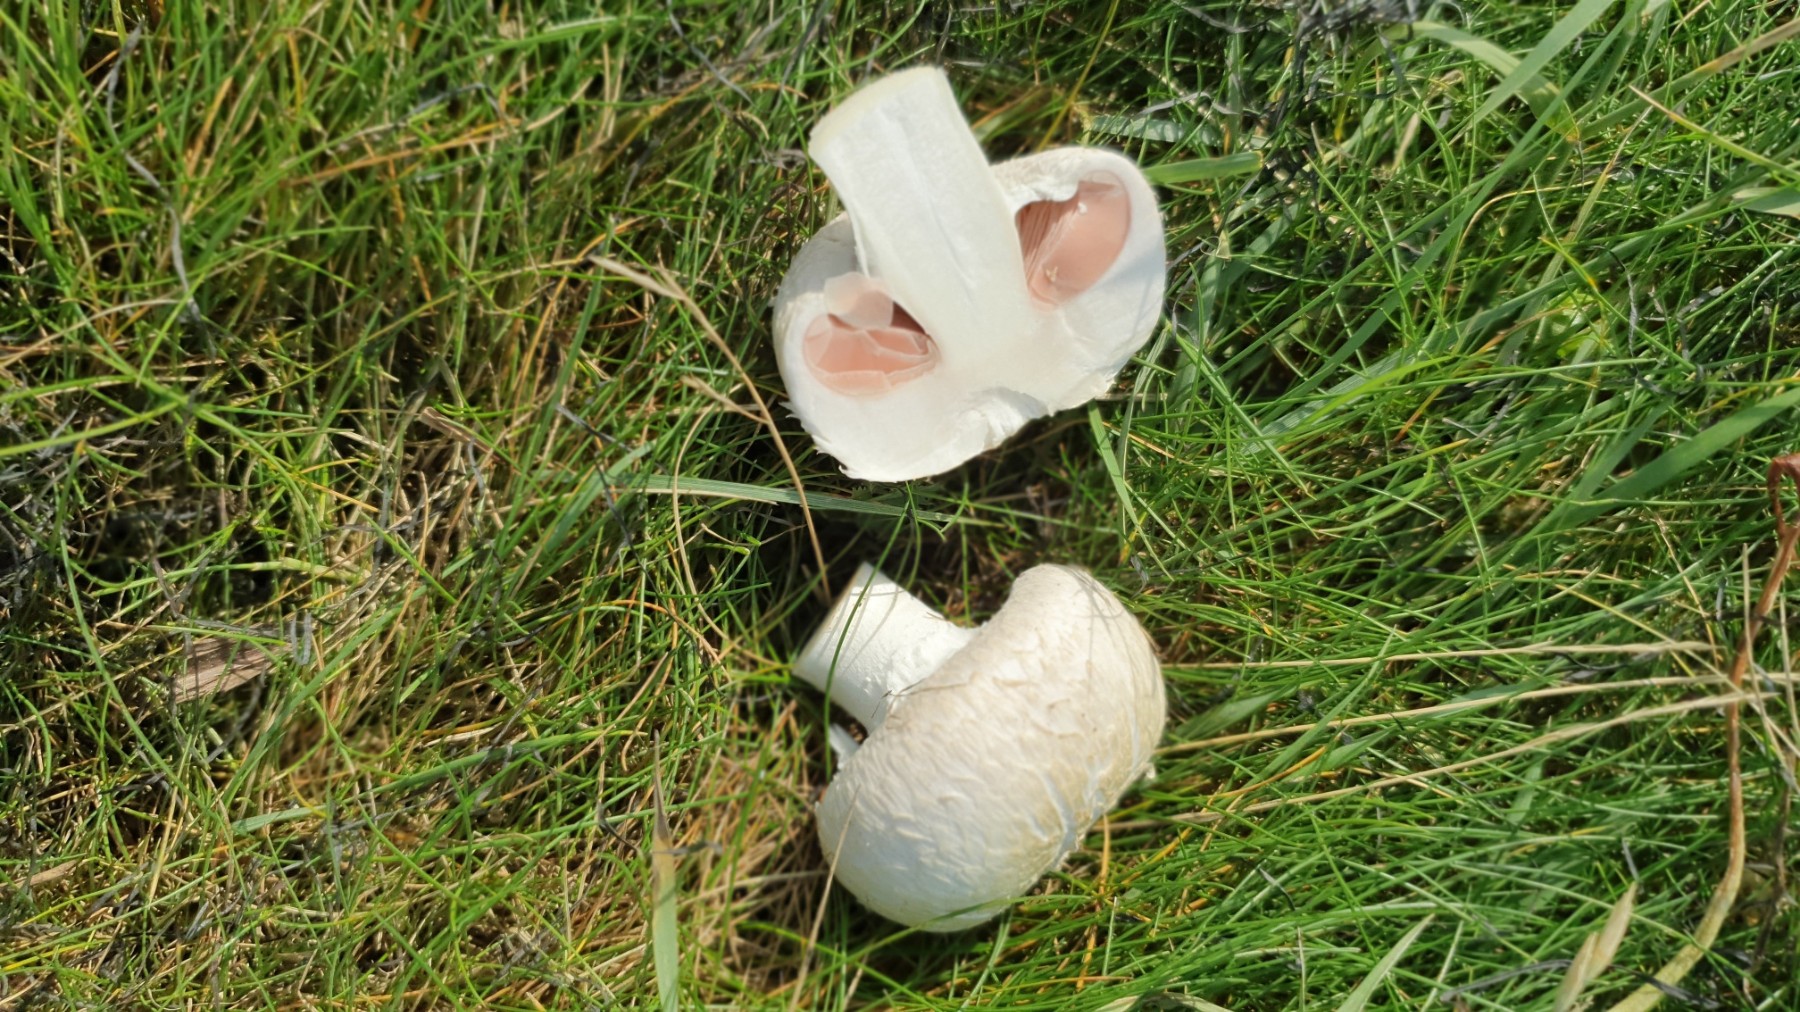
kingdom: Fungi
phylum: Basidiomycota
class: Agaricomycetes
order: Agaricales
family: Agaricaceae
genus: Agaricus
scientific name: Agaricus
